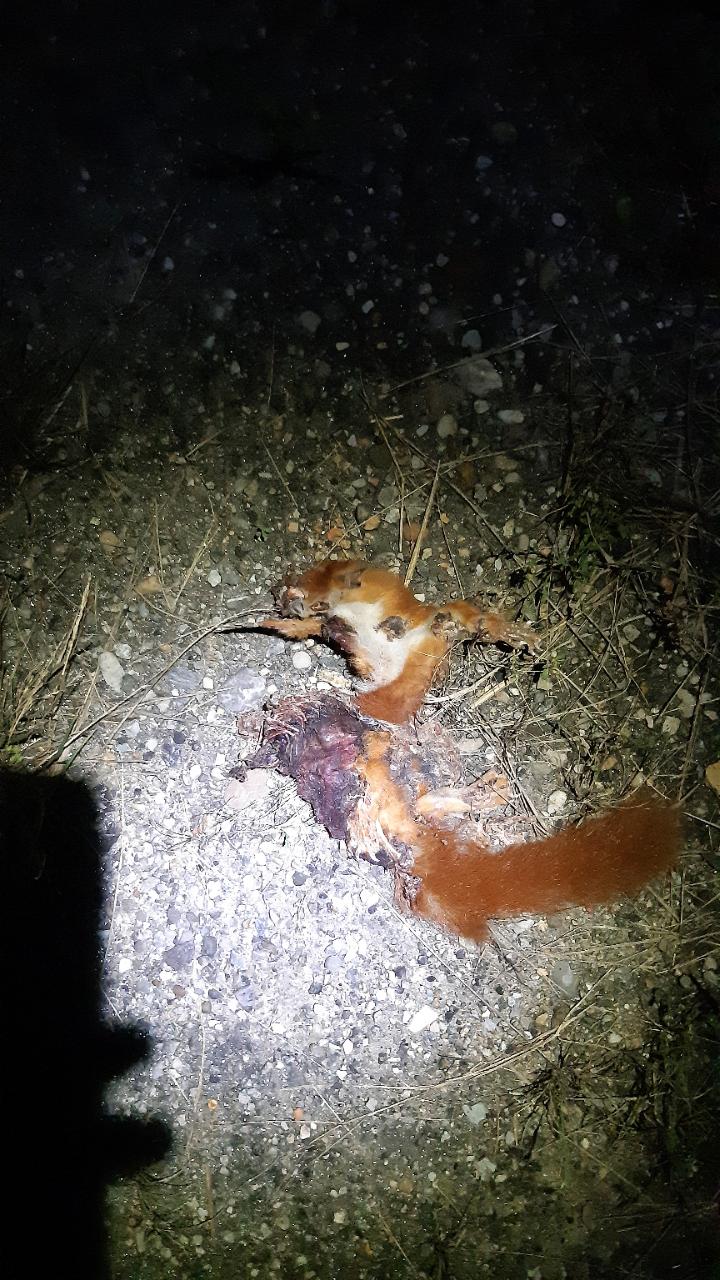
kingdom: Animalia
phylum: Chordata
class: Mammalia
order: Rodentia
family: Sciuridae
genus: Sciurus
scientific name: Sciurus vulgaris
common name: Eurasian red squirrel
